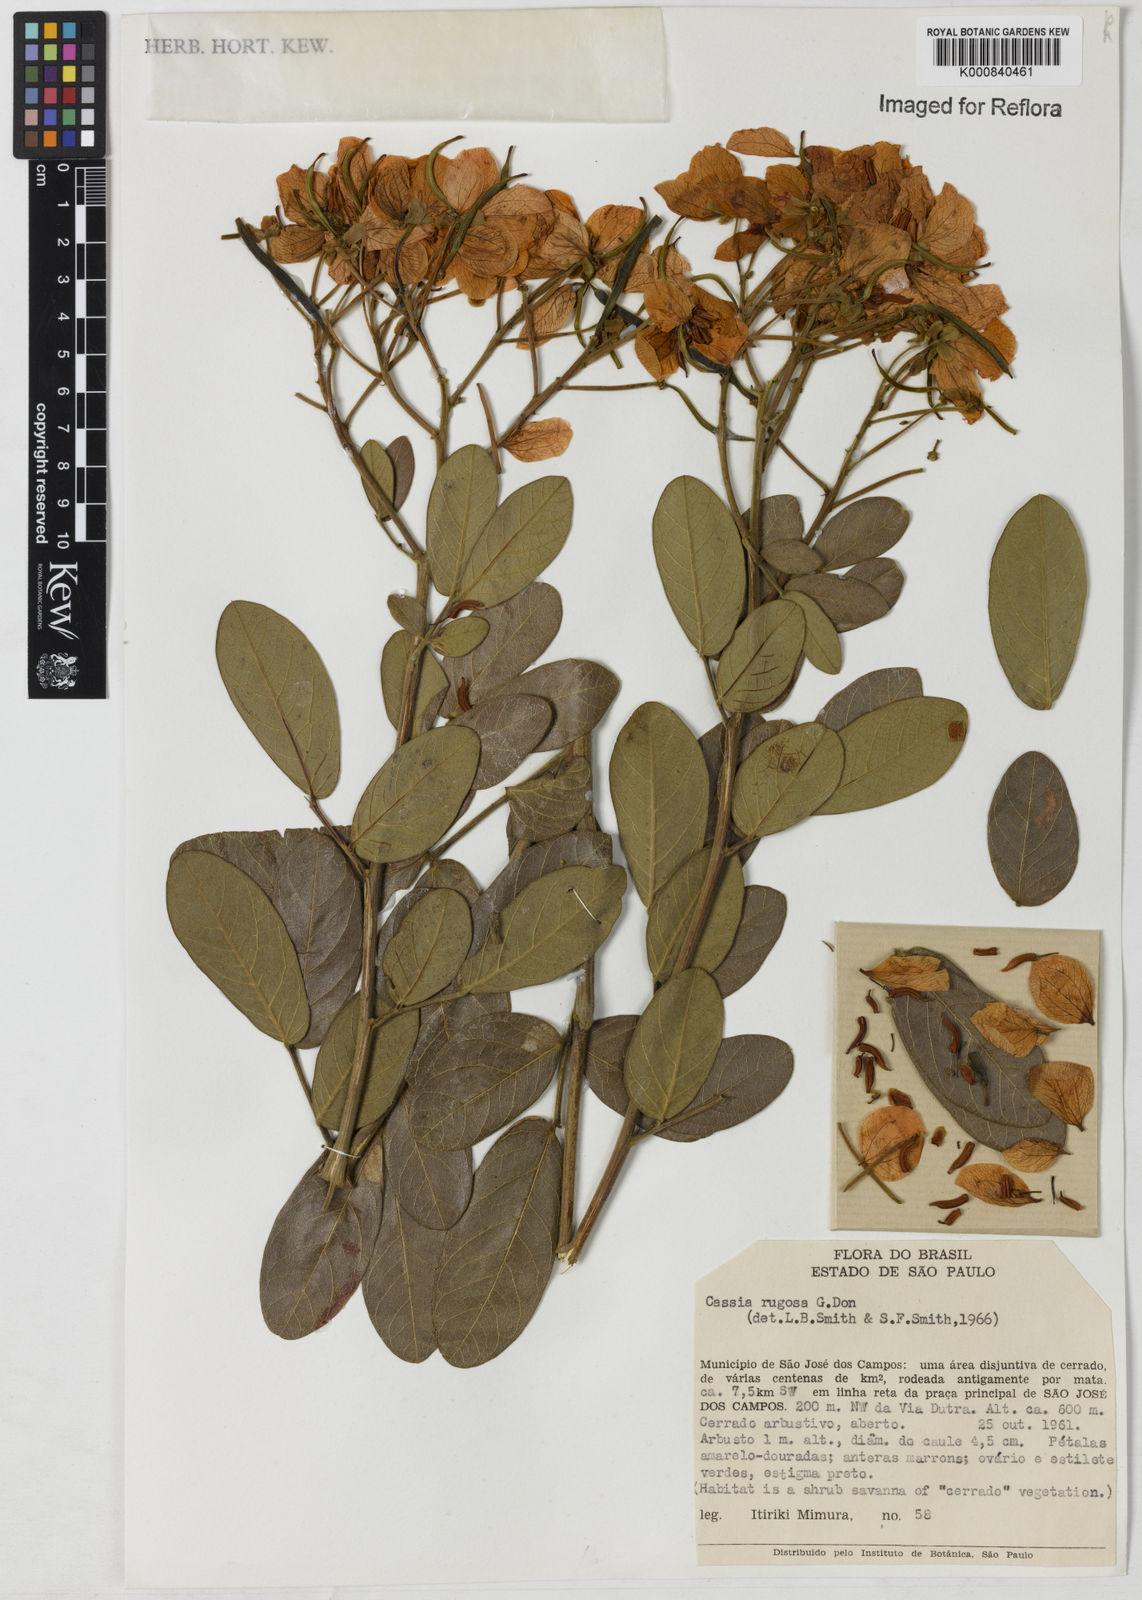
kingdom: Plantae
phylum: Tracheophyta
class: Magnoliopsida
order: Fabales
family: Fabaceae
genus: Senna
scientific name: Senna rugosa
